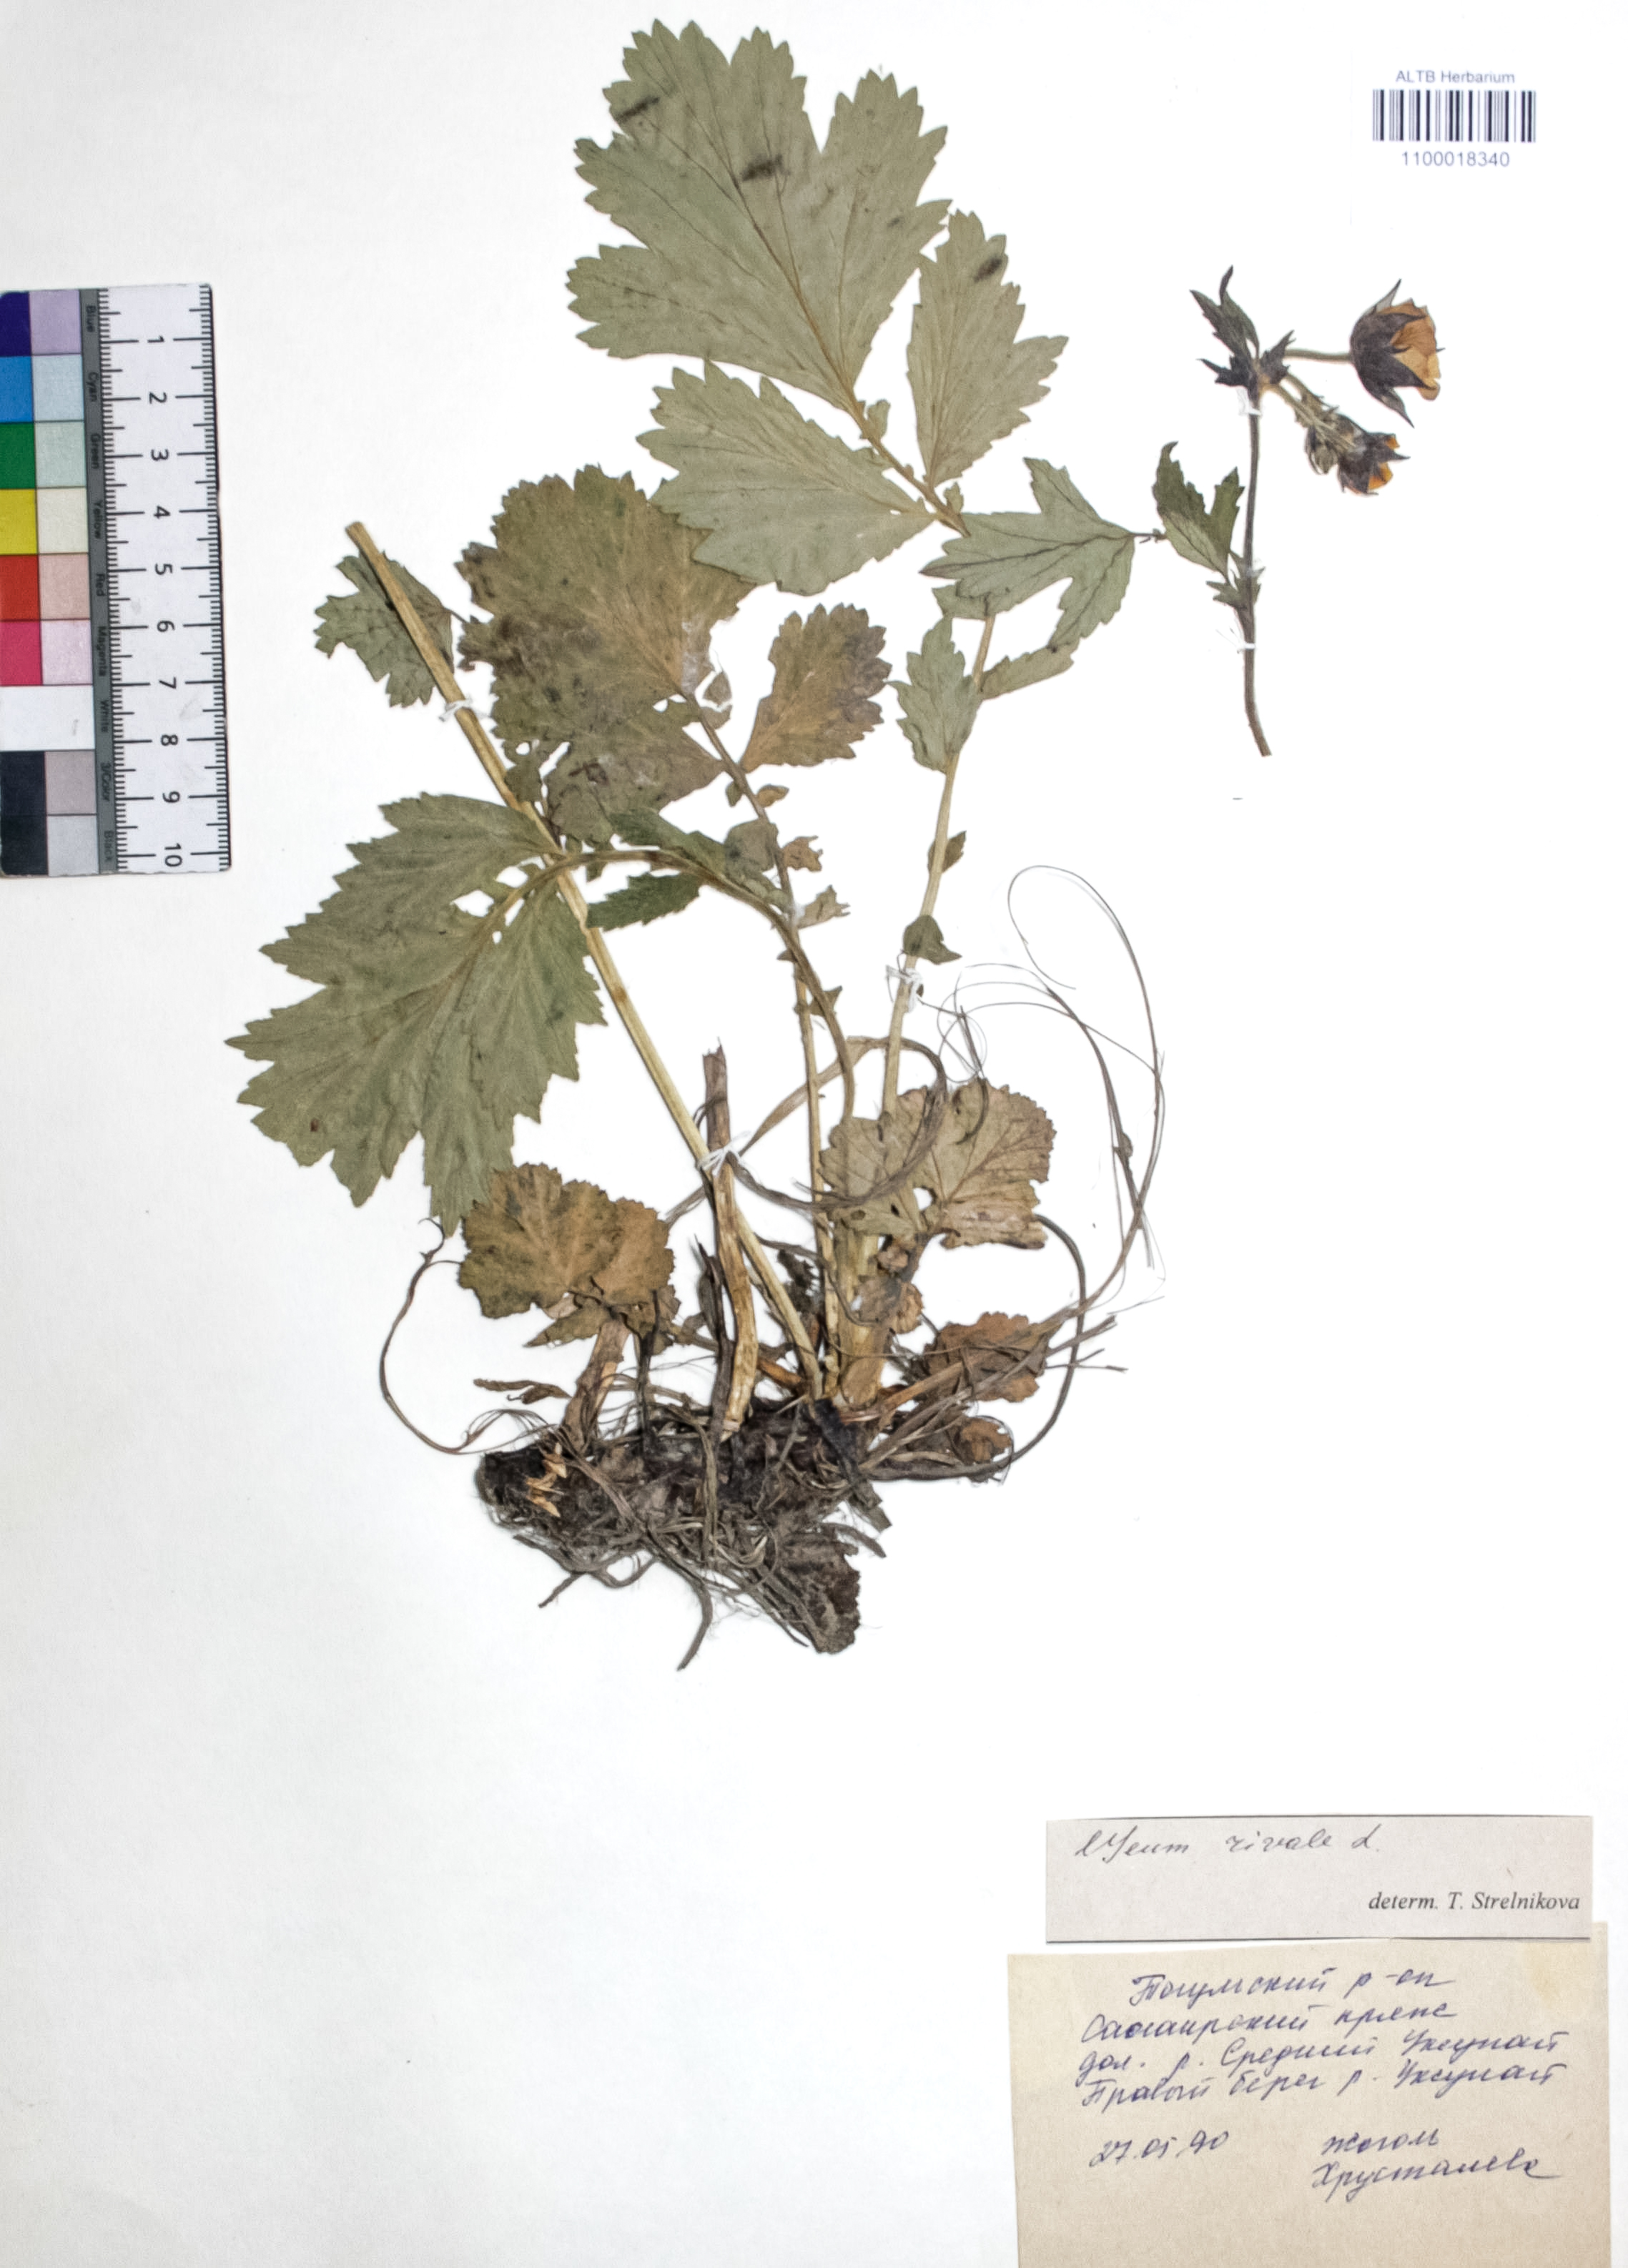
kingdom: Plantae
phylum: Tracheophyta
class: Magnoliopsida
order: Rosales
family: Rosaceae
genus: Geum
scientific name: Geum rivale
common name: Water avens
